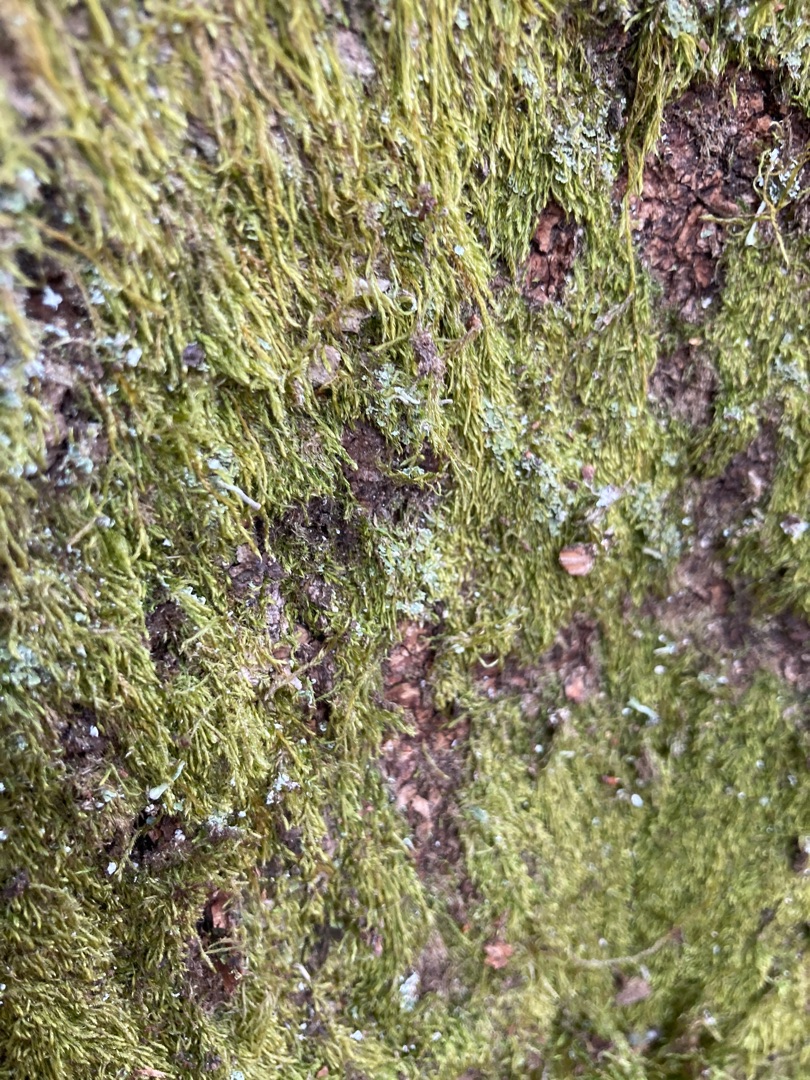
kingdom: Plantae
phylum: Bryophyta
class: Bryopsida
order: Hypnales
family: Hypnaceae
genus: Hypnum
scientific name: Hypnum
